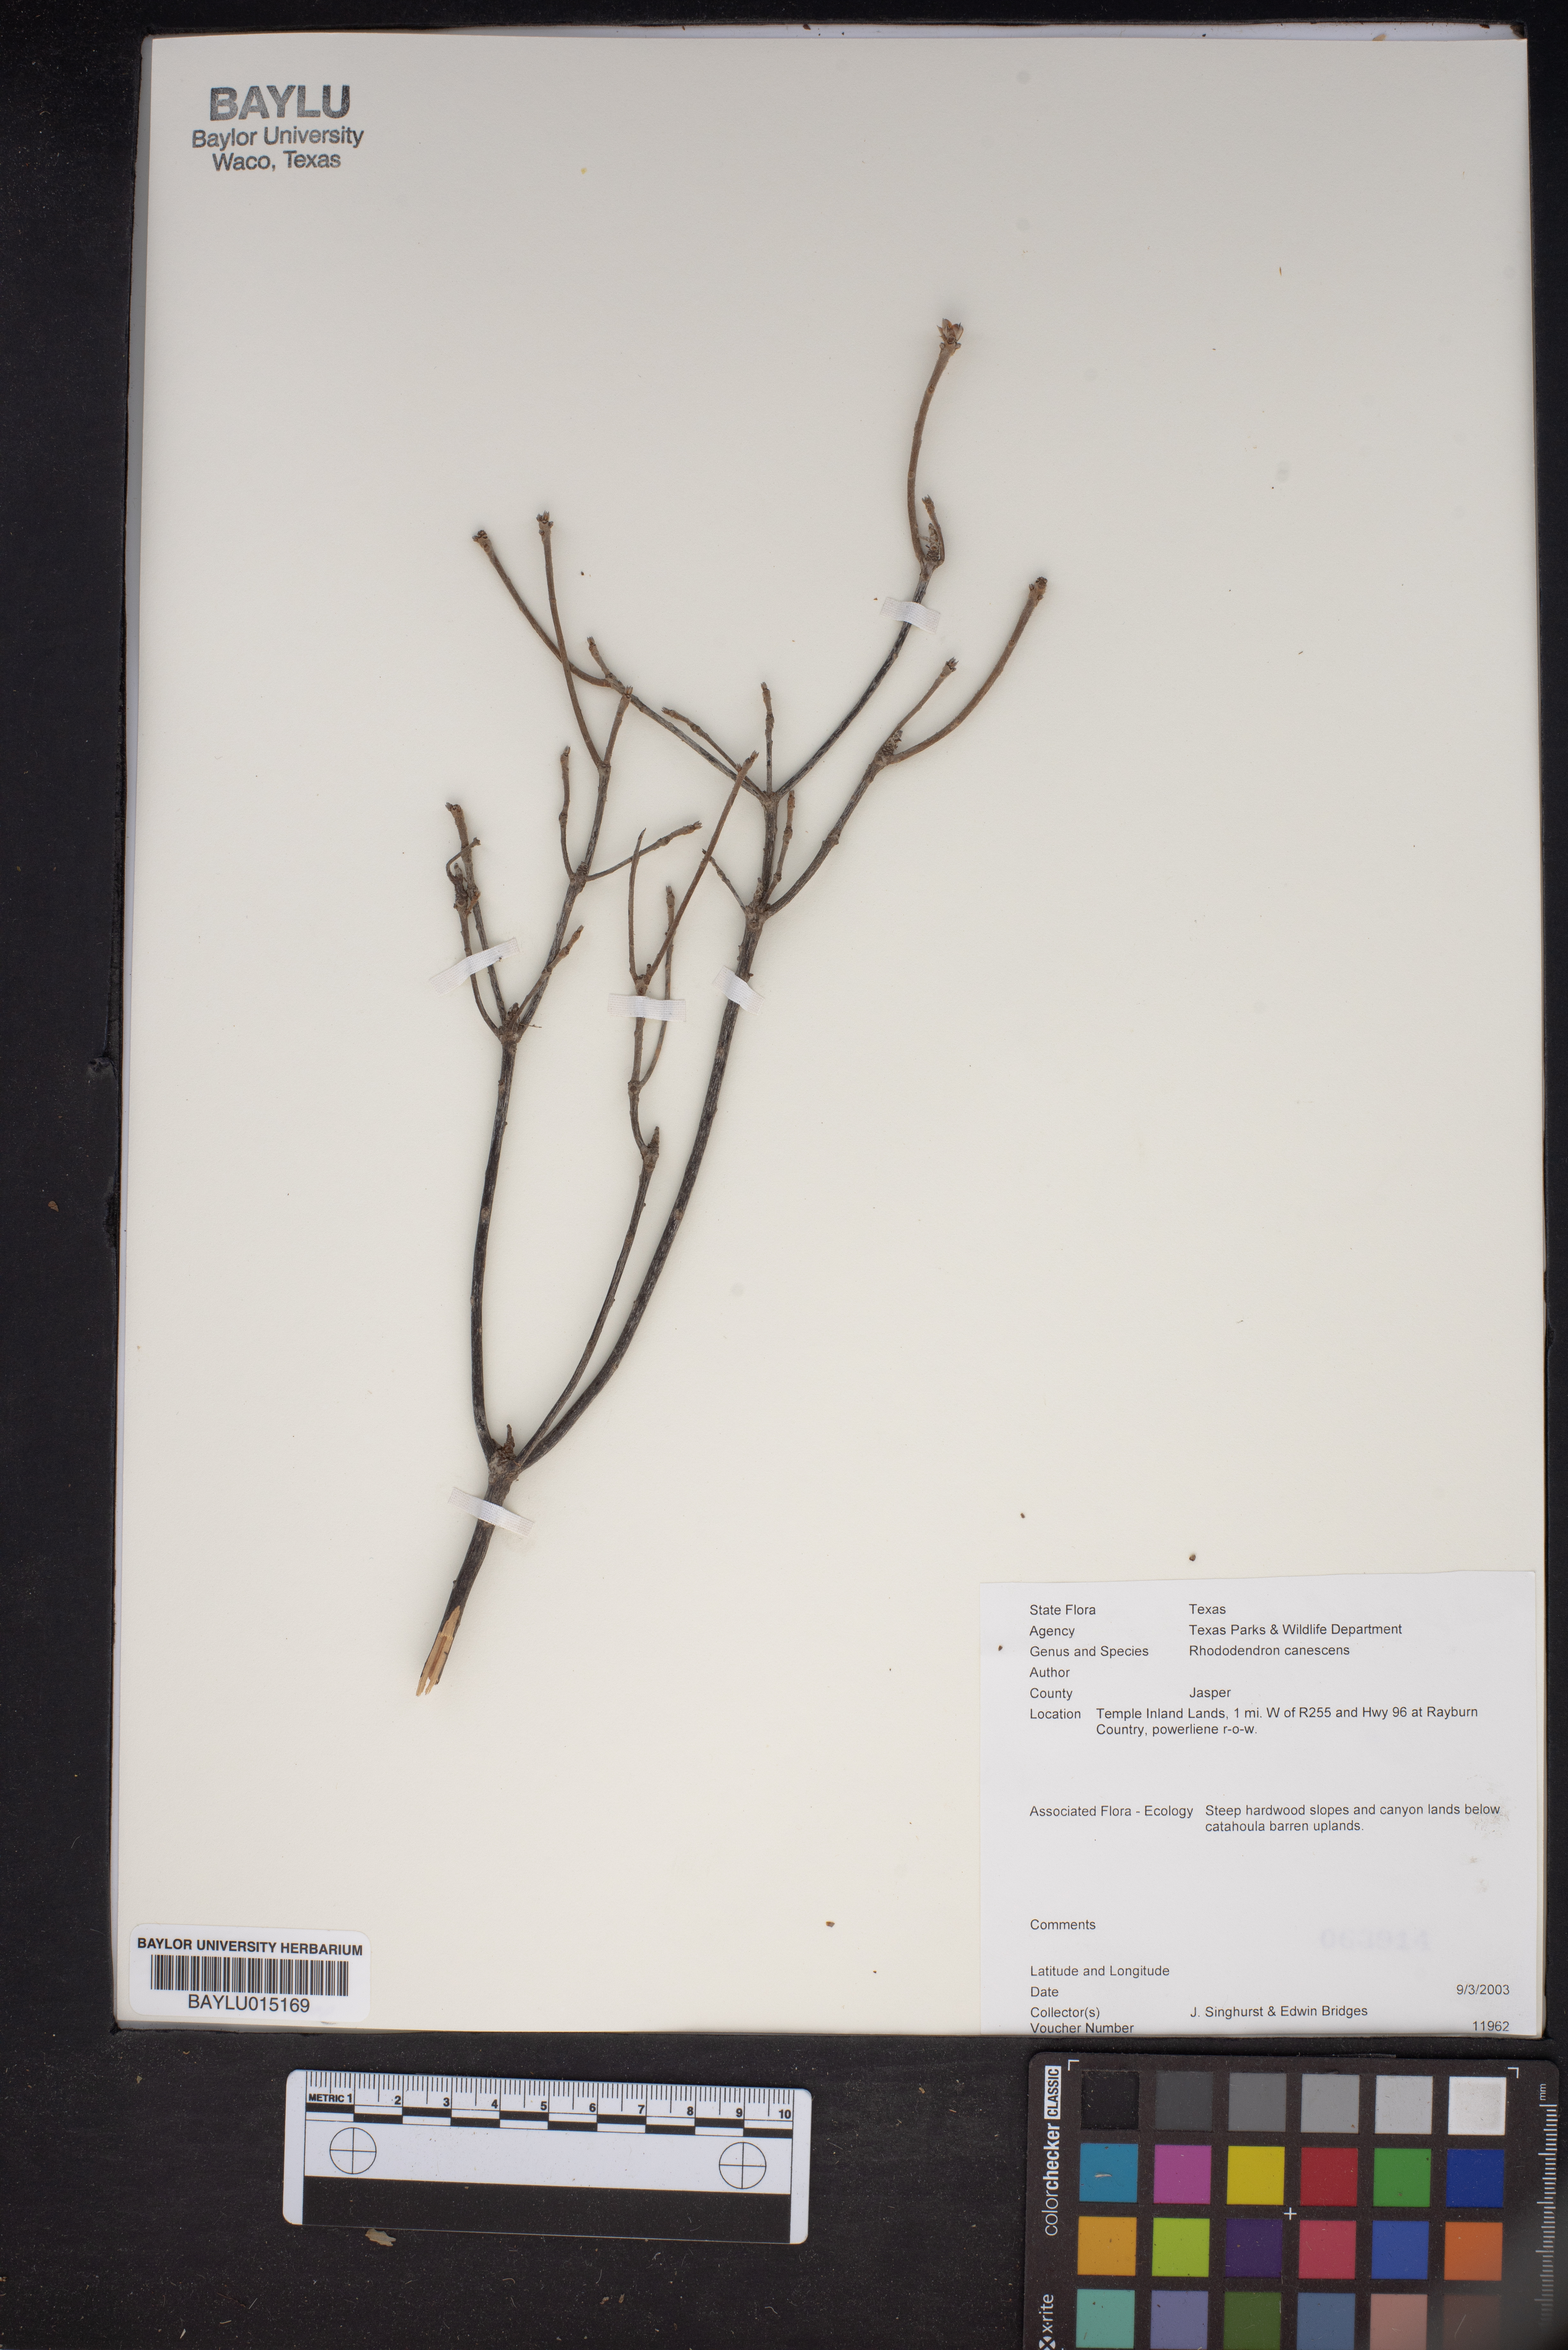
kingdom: Plantae
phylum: Tracheophyta
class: Magnoliopsida
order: Ericales
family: Ericaceae
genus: Rhododendron
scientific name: Rhododendron canescens
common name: Mountain azalea
